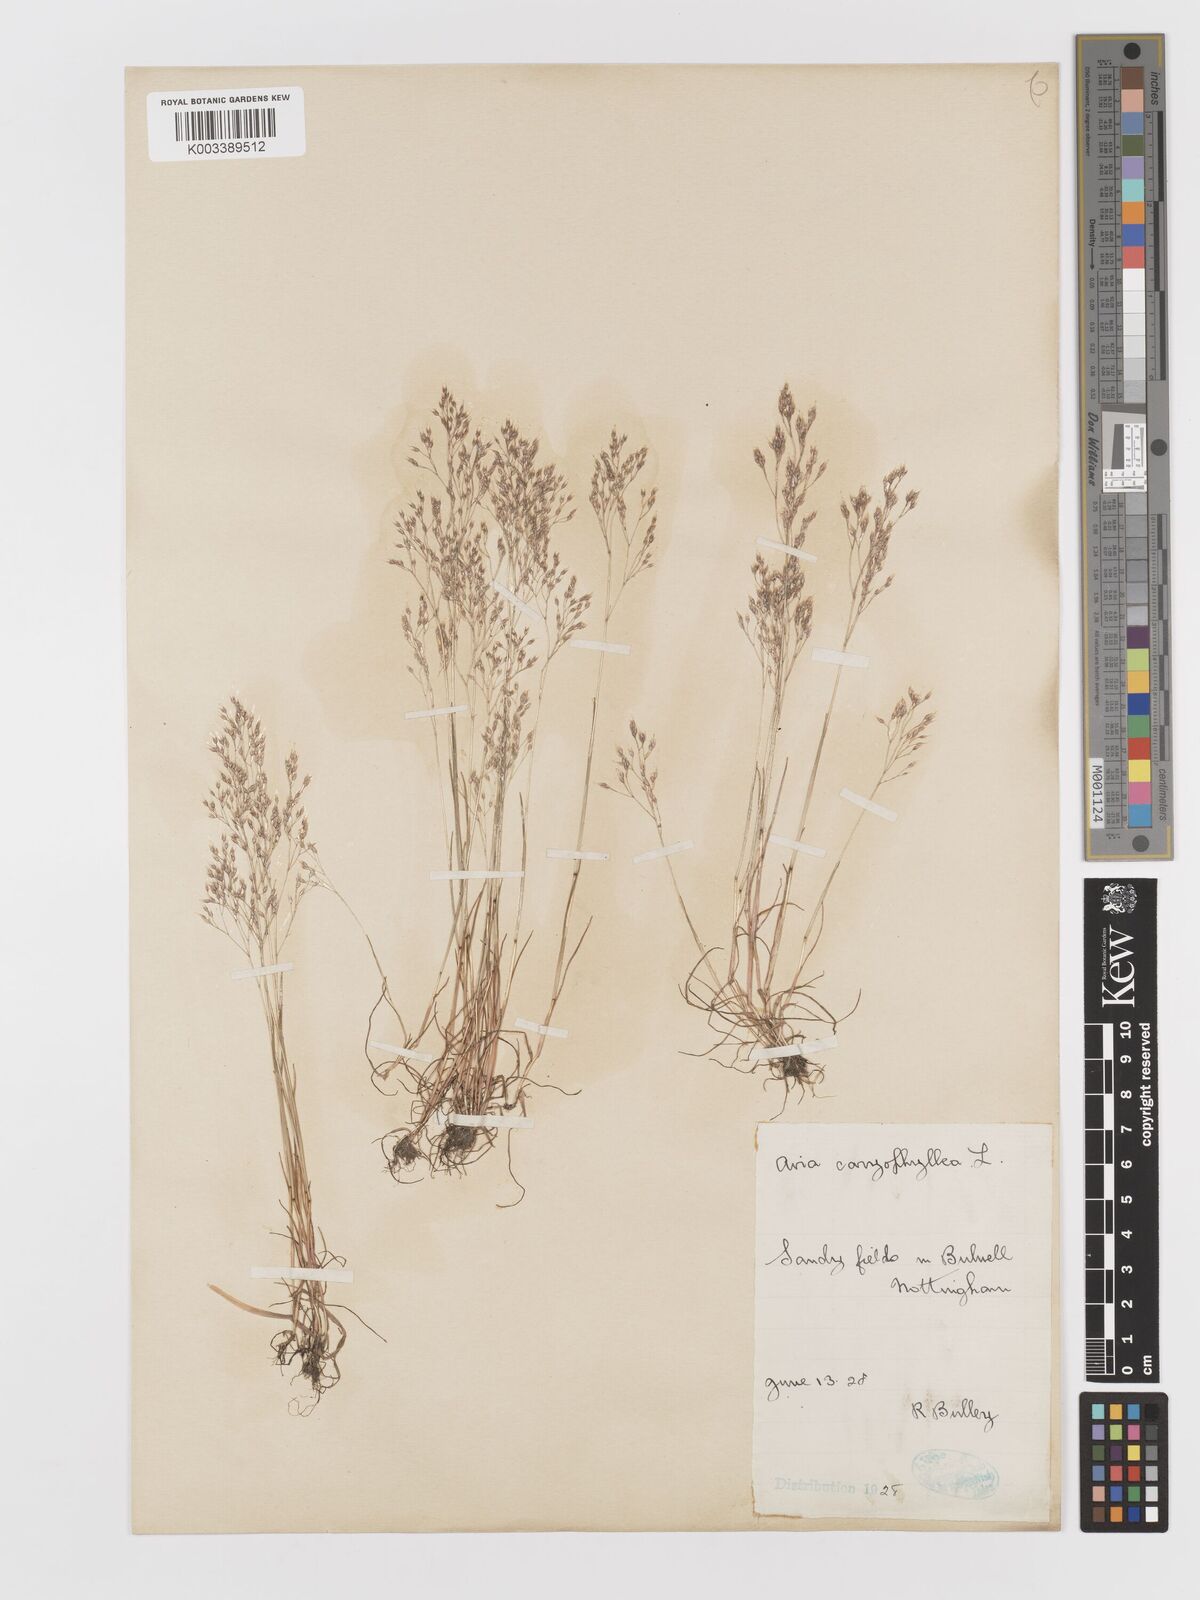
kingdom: Plantae
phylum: Tracheophyta
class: Liliopsida
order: Poales
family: Poaceae
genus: Aira
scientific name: Aira caryophyllea
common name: Silver hairgrass
